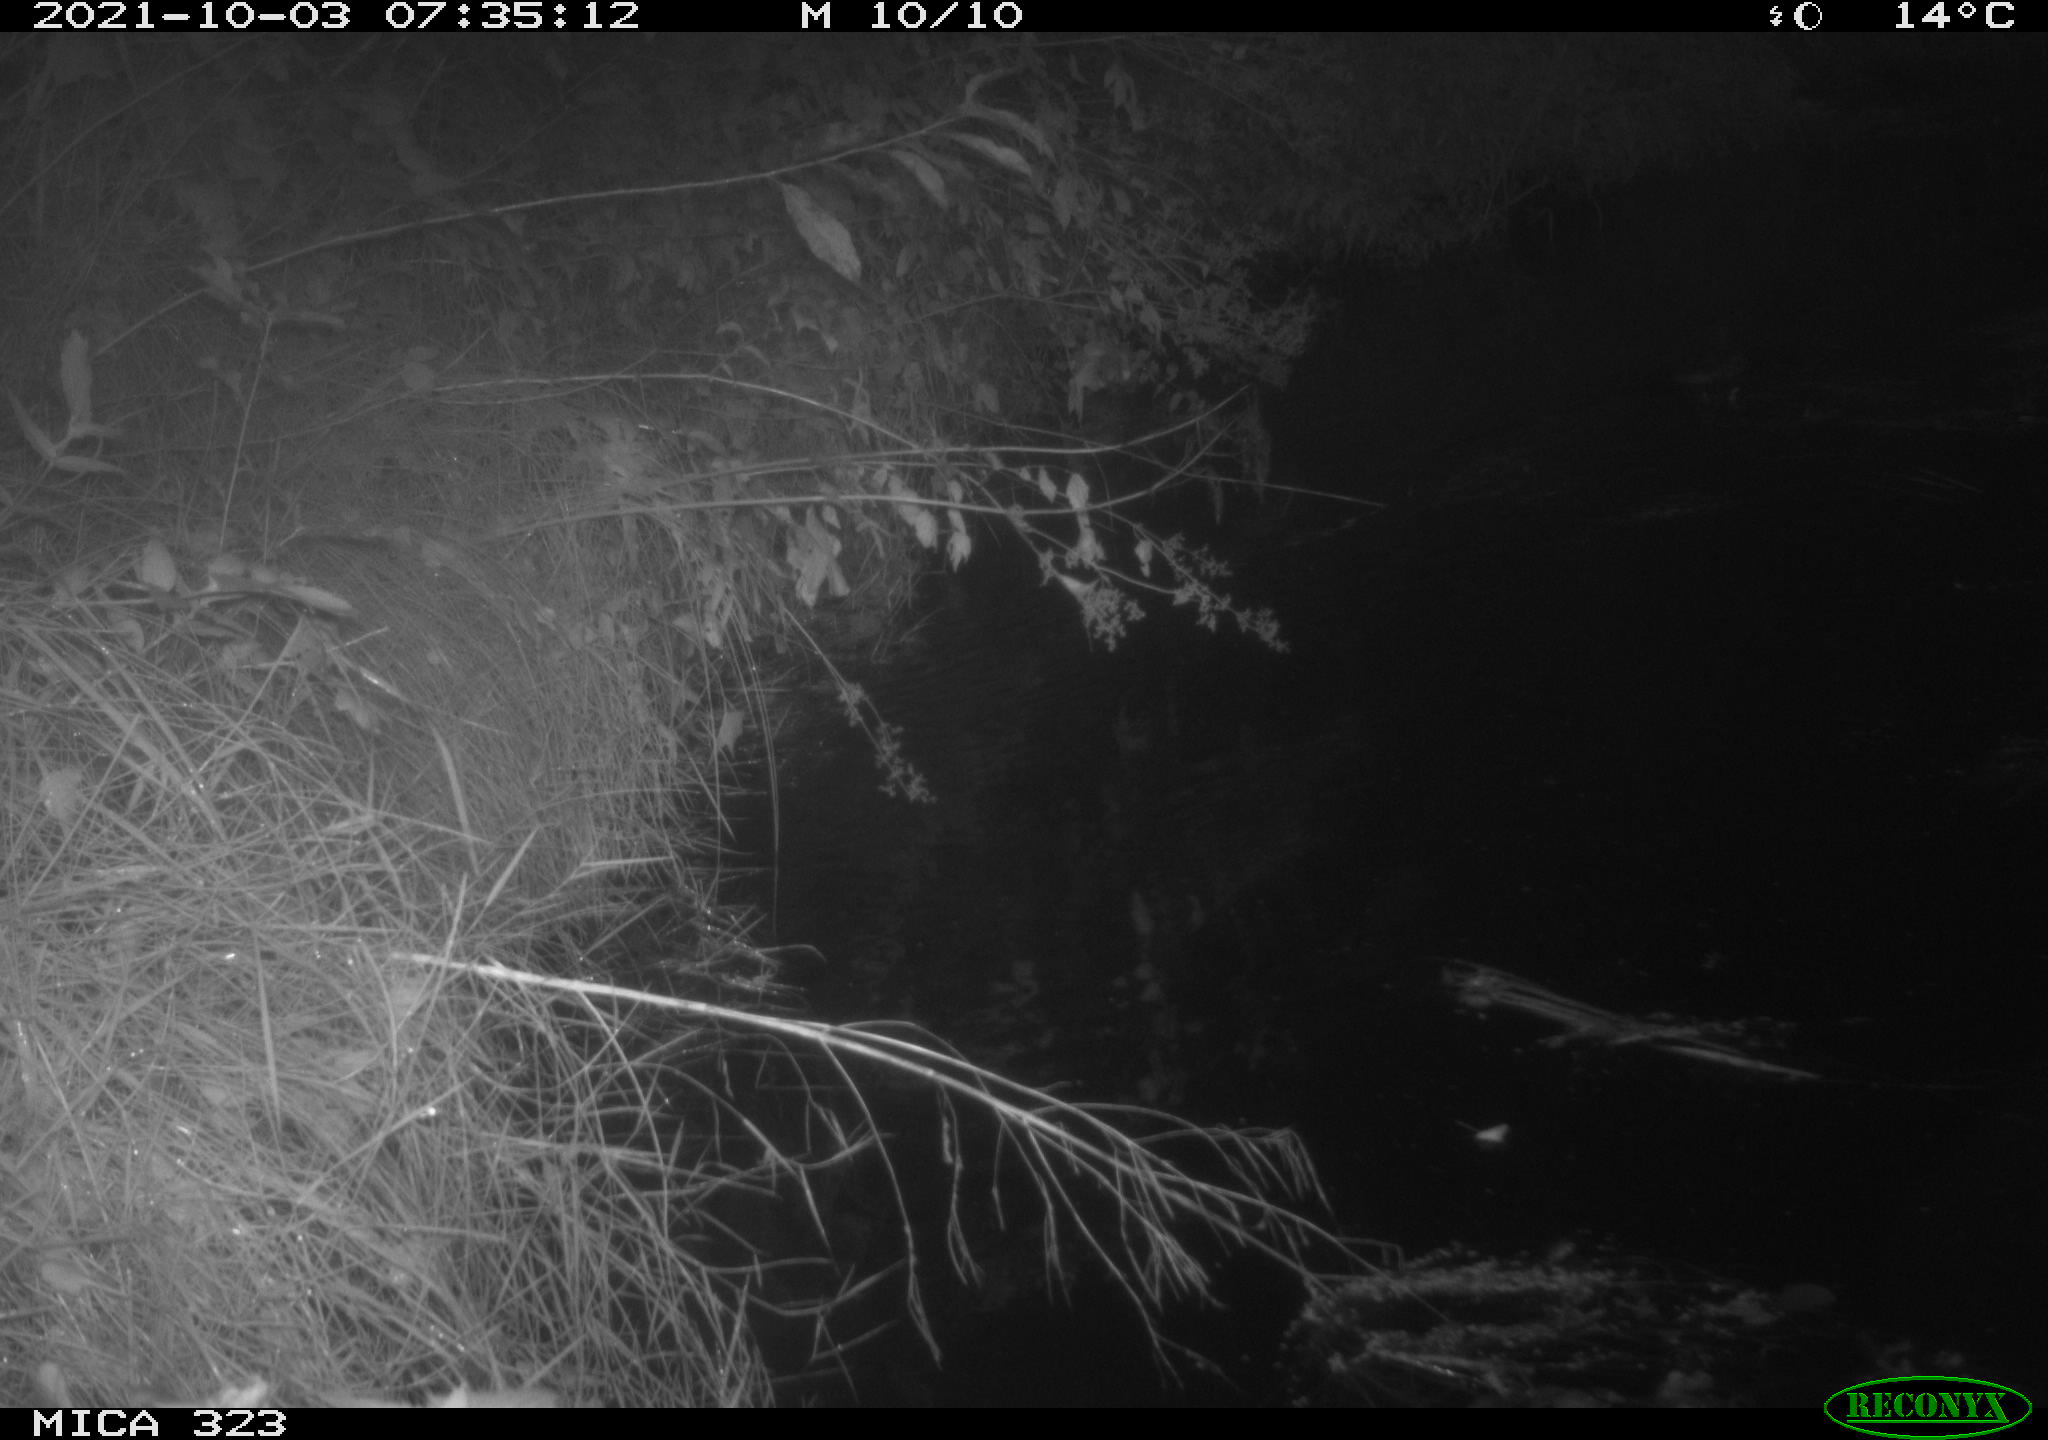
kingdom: Animalia
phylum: Chordata
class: Aves
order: Anseriformes
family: Anatidae
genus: Anas
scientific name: Anas
